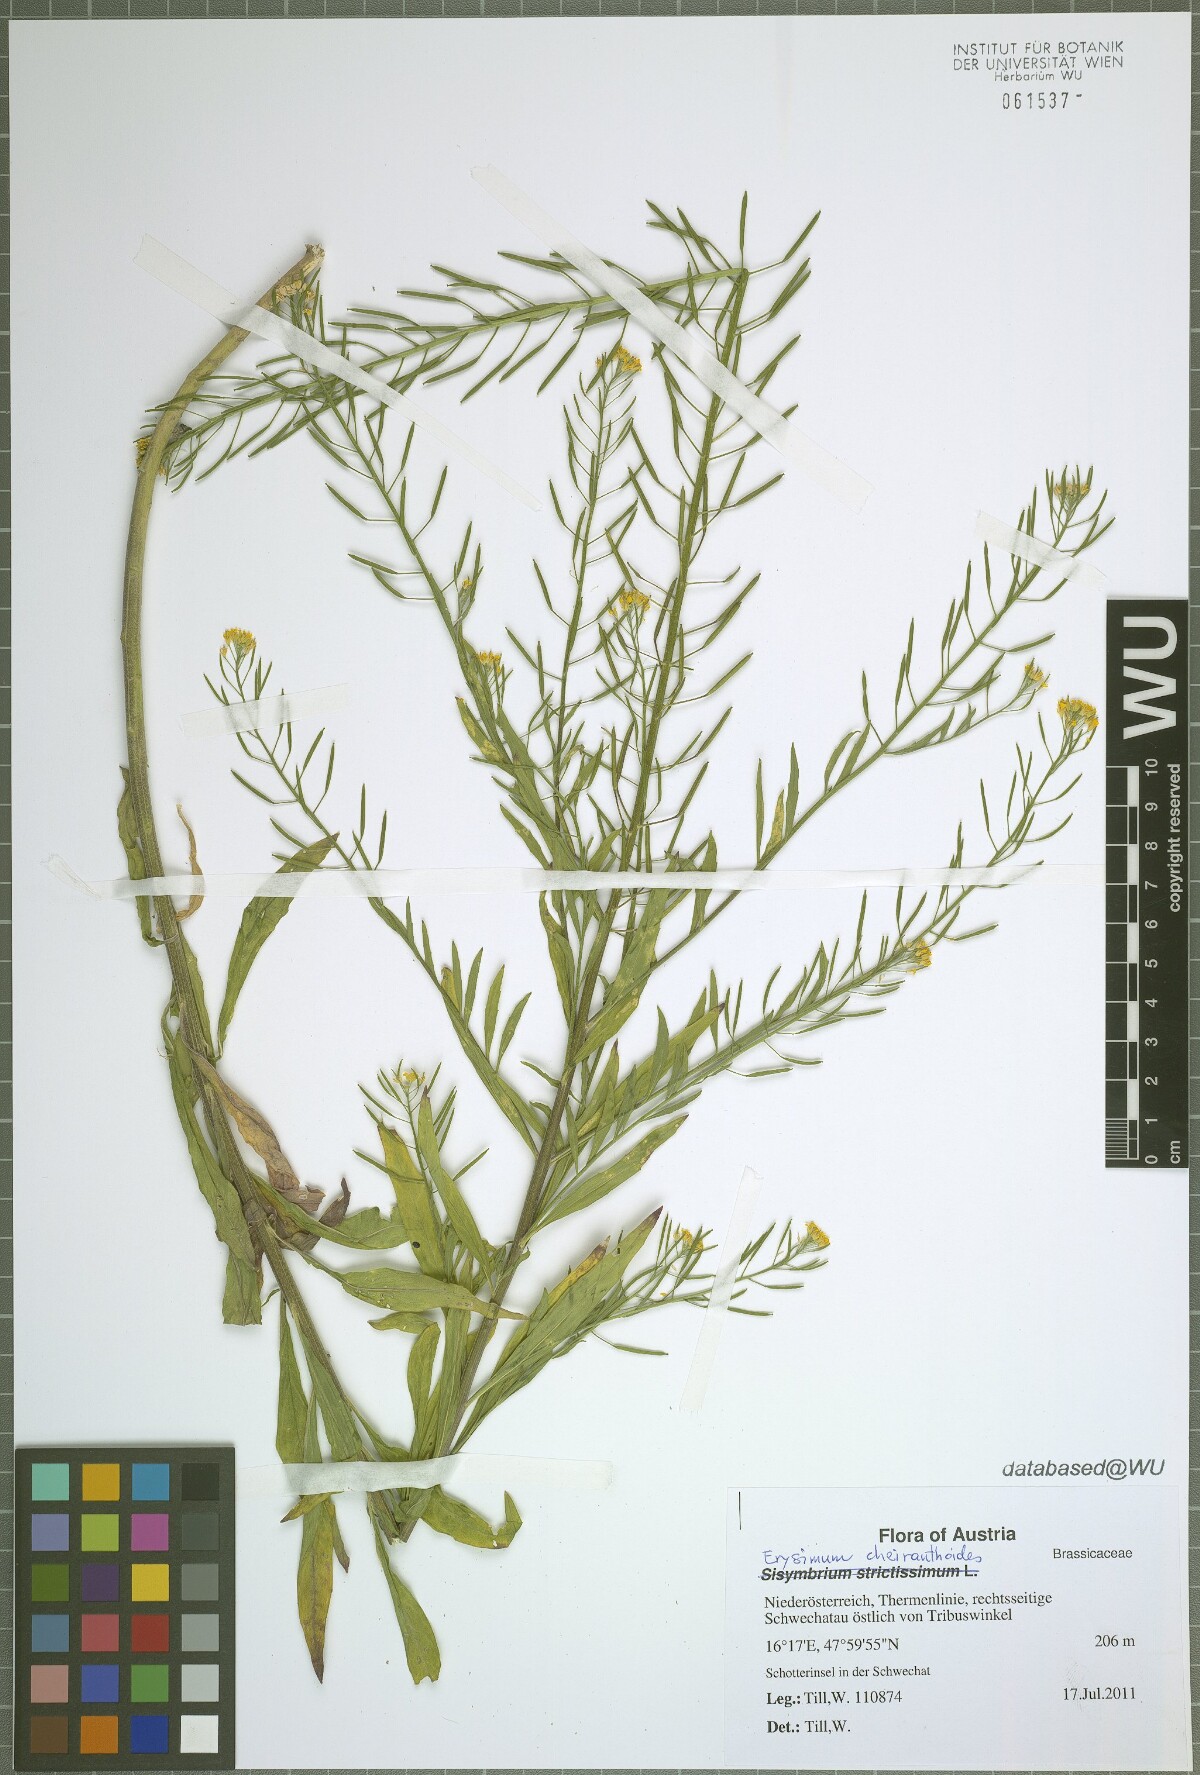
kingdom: Plantae
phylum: Tracheophyta
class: Magnoliopsida
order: Brassicales
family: Brassicaceae
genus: Erysimum
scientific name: Erysimum cheiranthoides
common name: Treacle mustard
